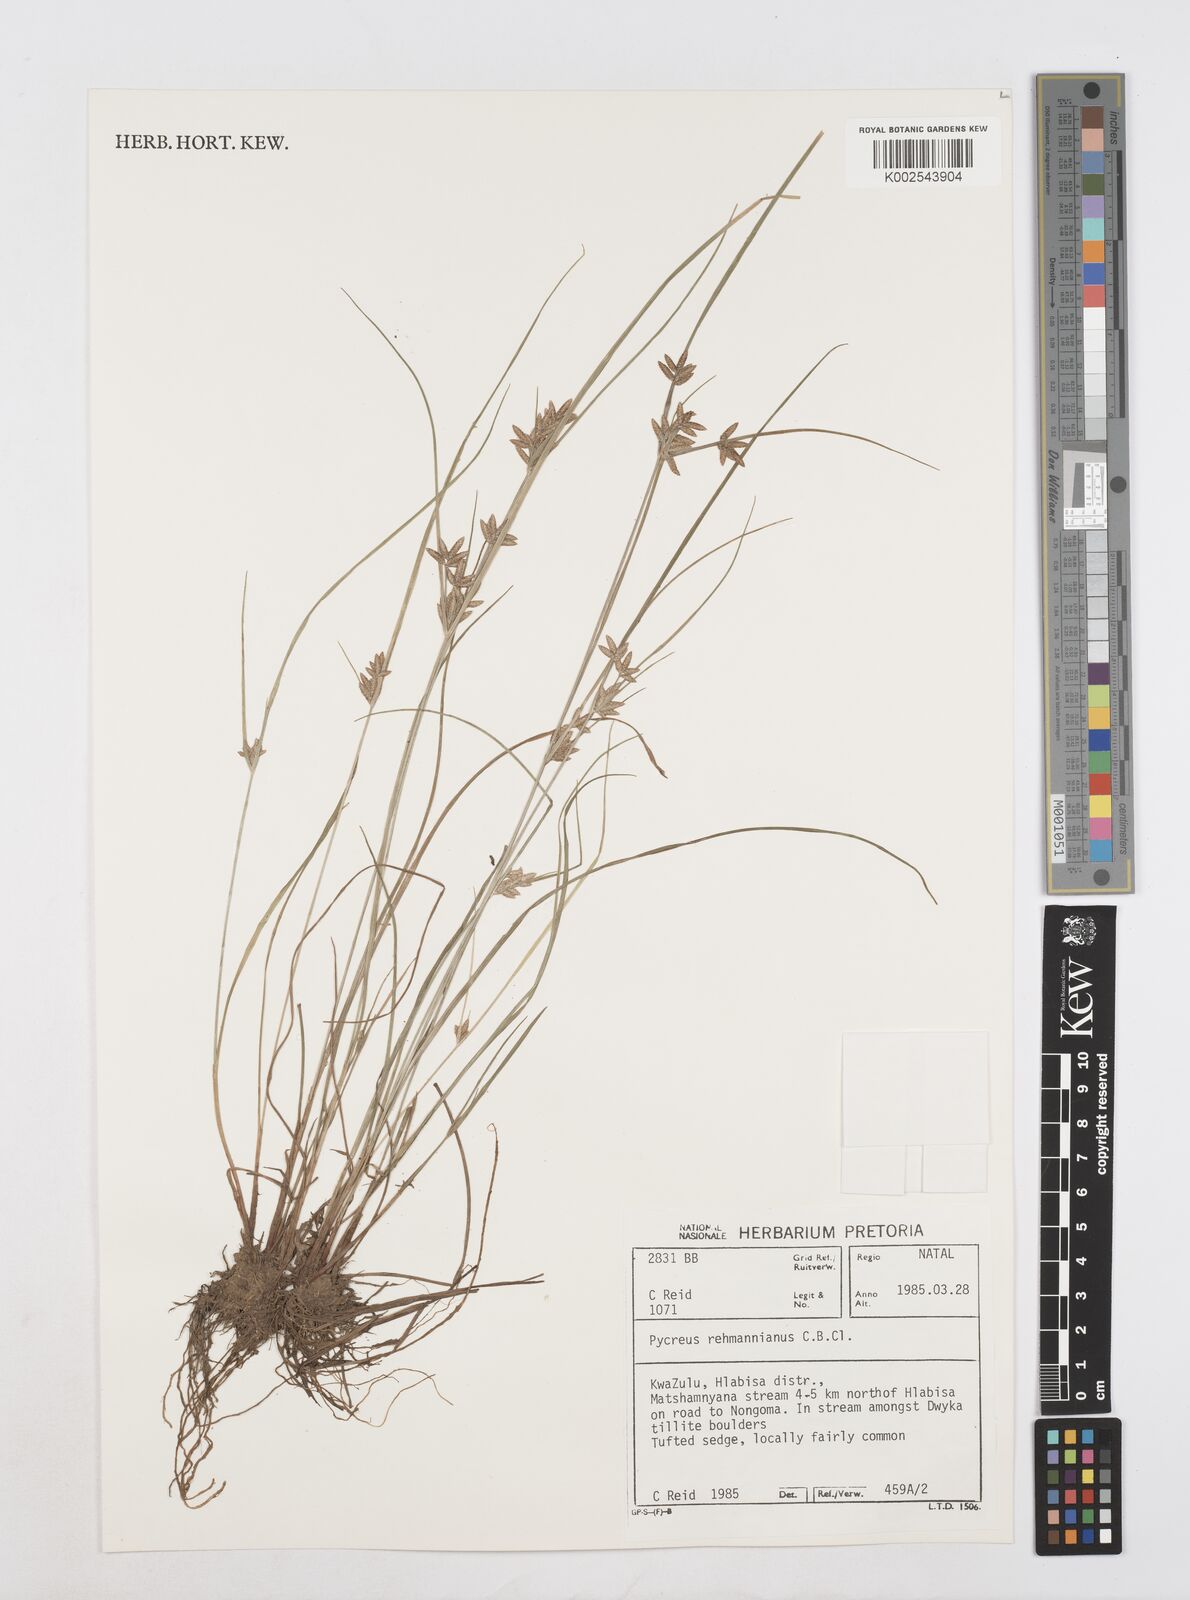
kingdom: Plantae
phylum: Tracheophyta
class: Liliopsida
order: Poales
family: Cyperaceae
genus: Cyperus
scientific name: Cyperus flavescens
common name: Yellow galingale
